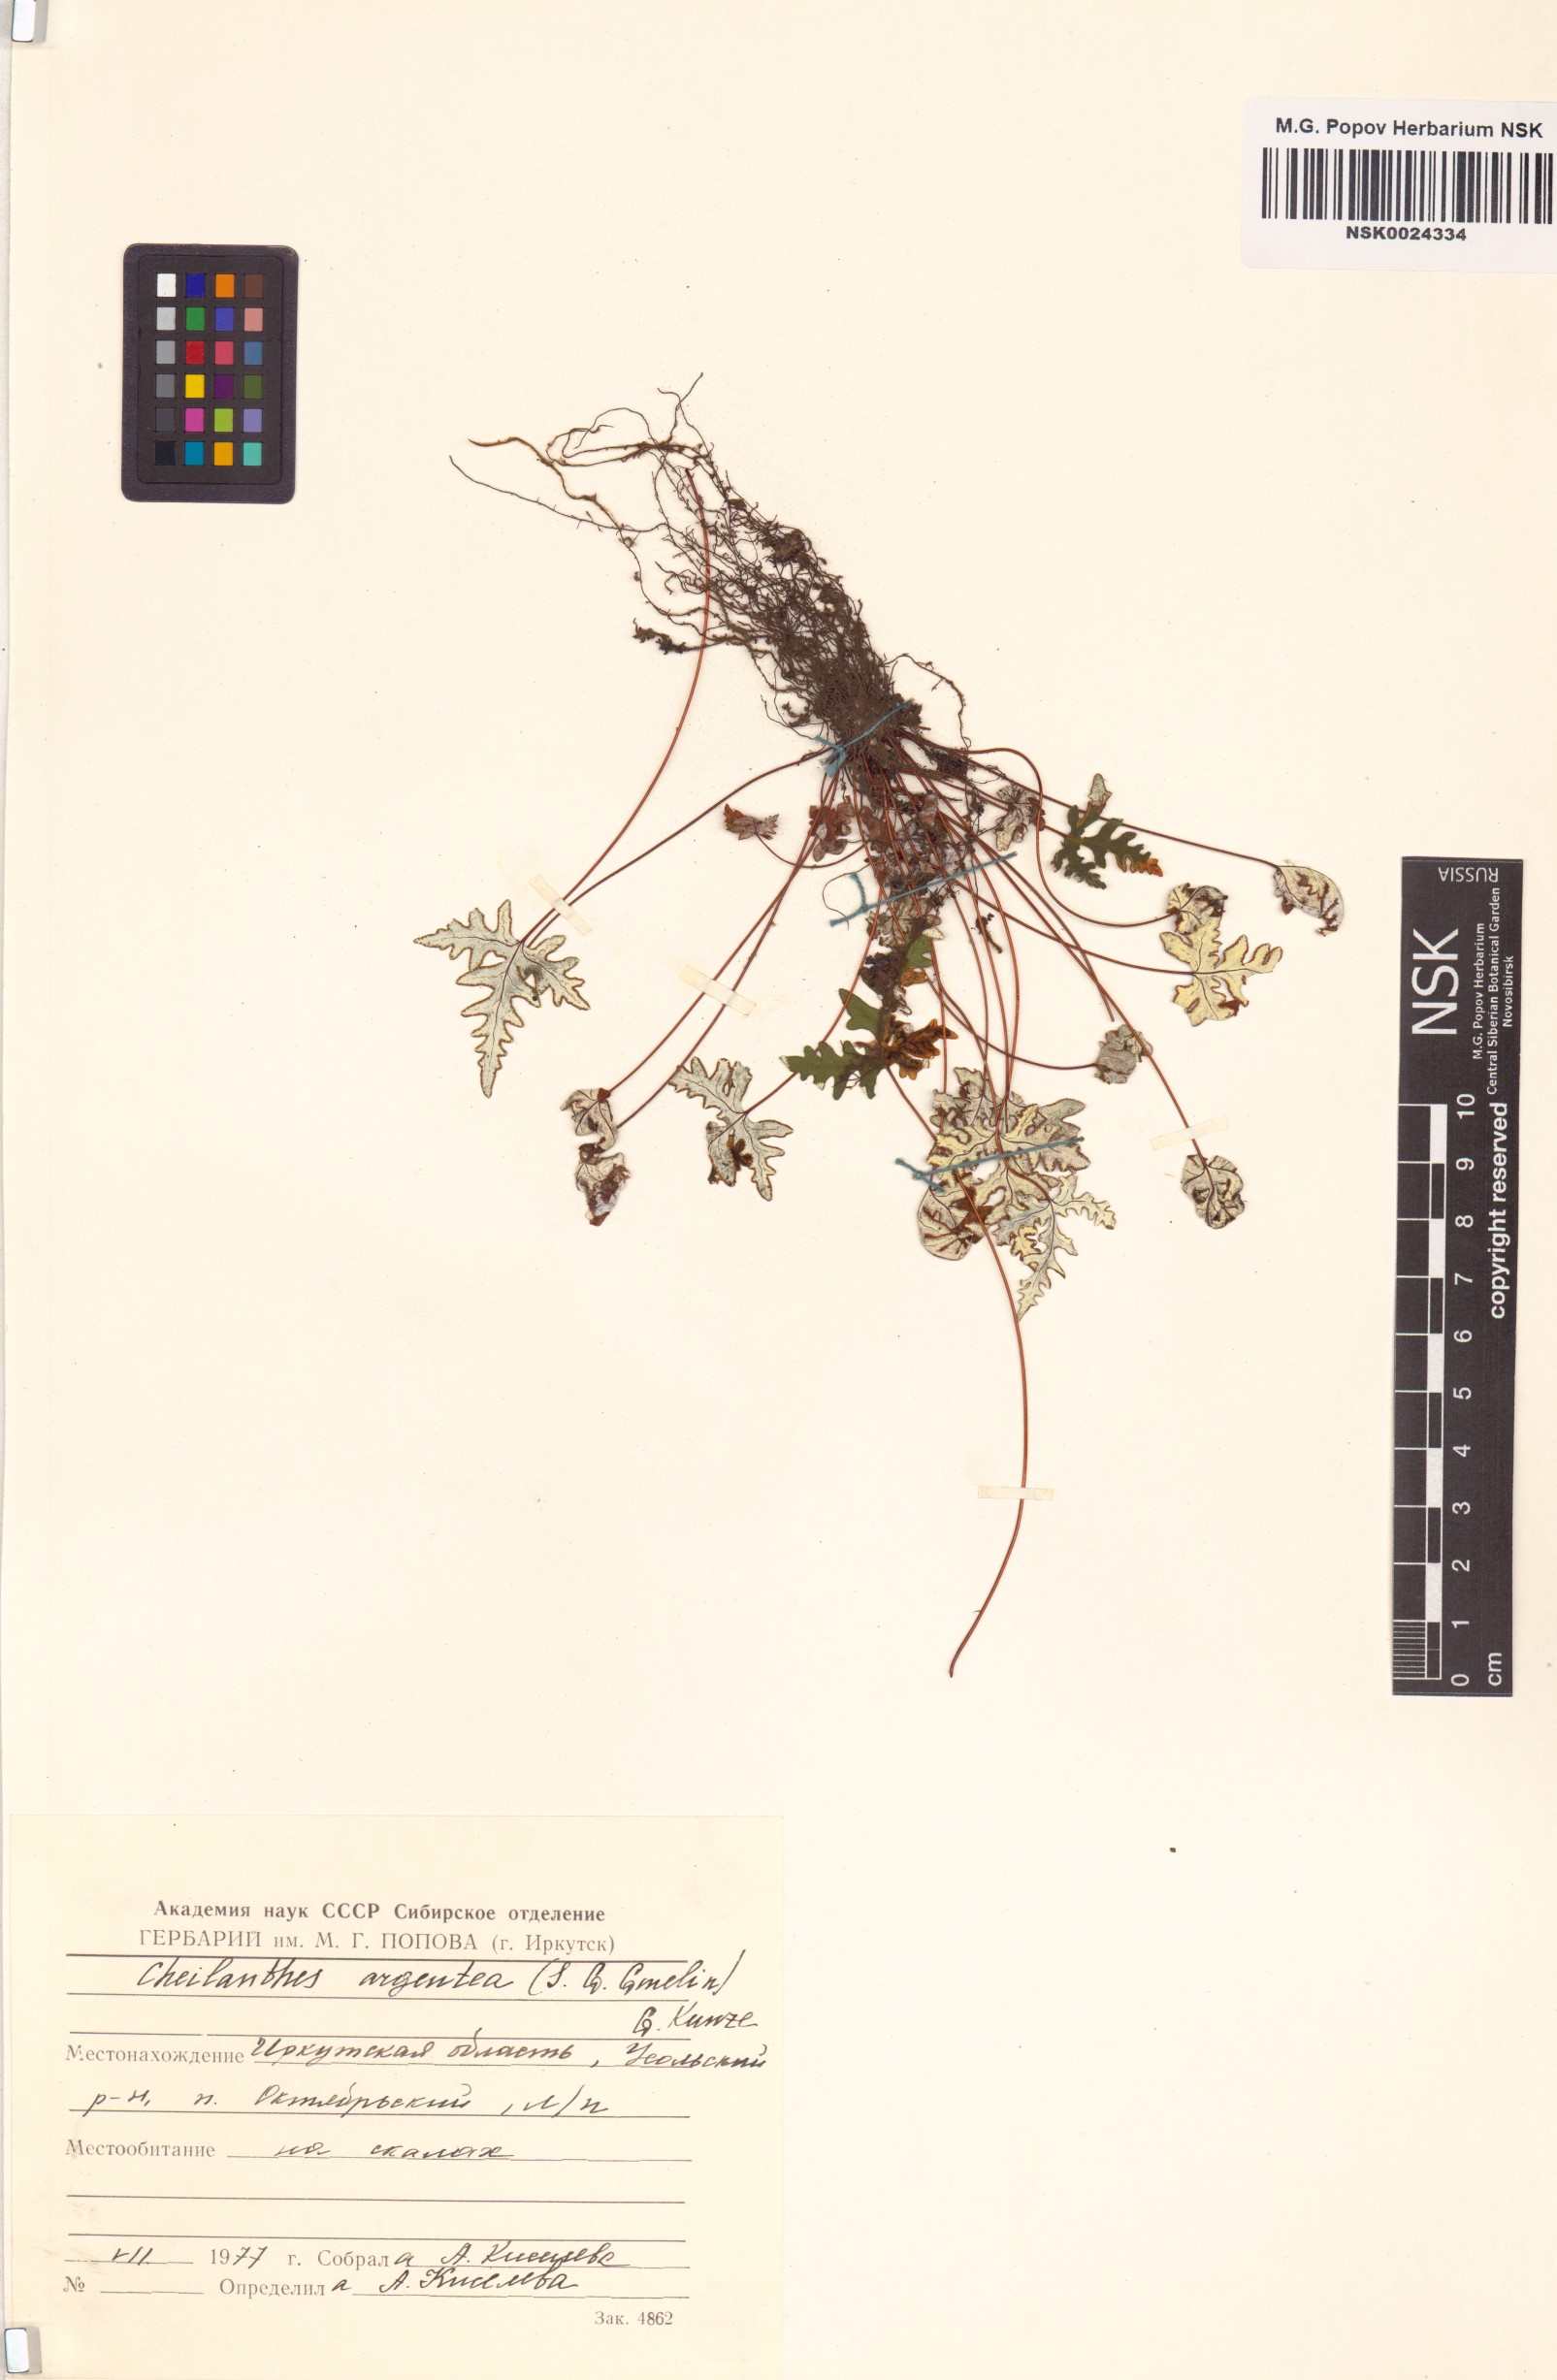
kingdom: Plantae
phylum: Tracheophyta
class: Polypodiopsida
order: Polypodiales
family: Pteridaceae
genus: Aleuritopteris
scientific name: Aleuritopteris argentea
